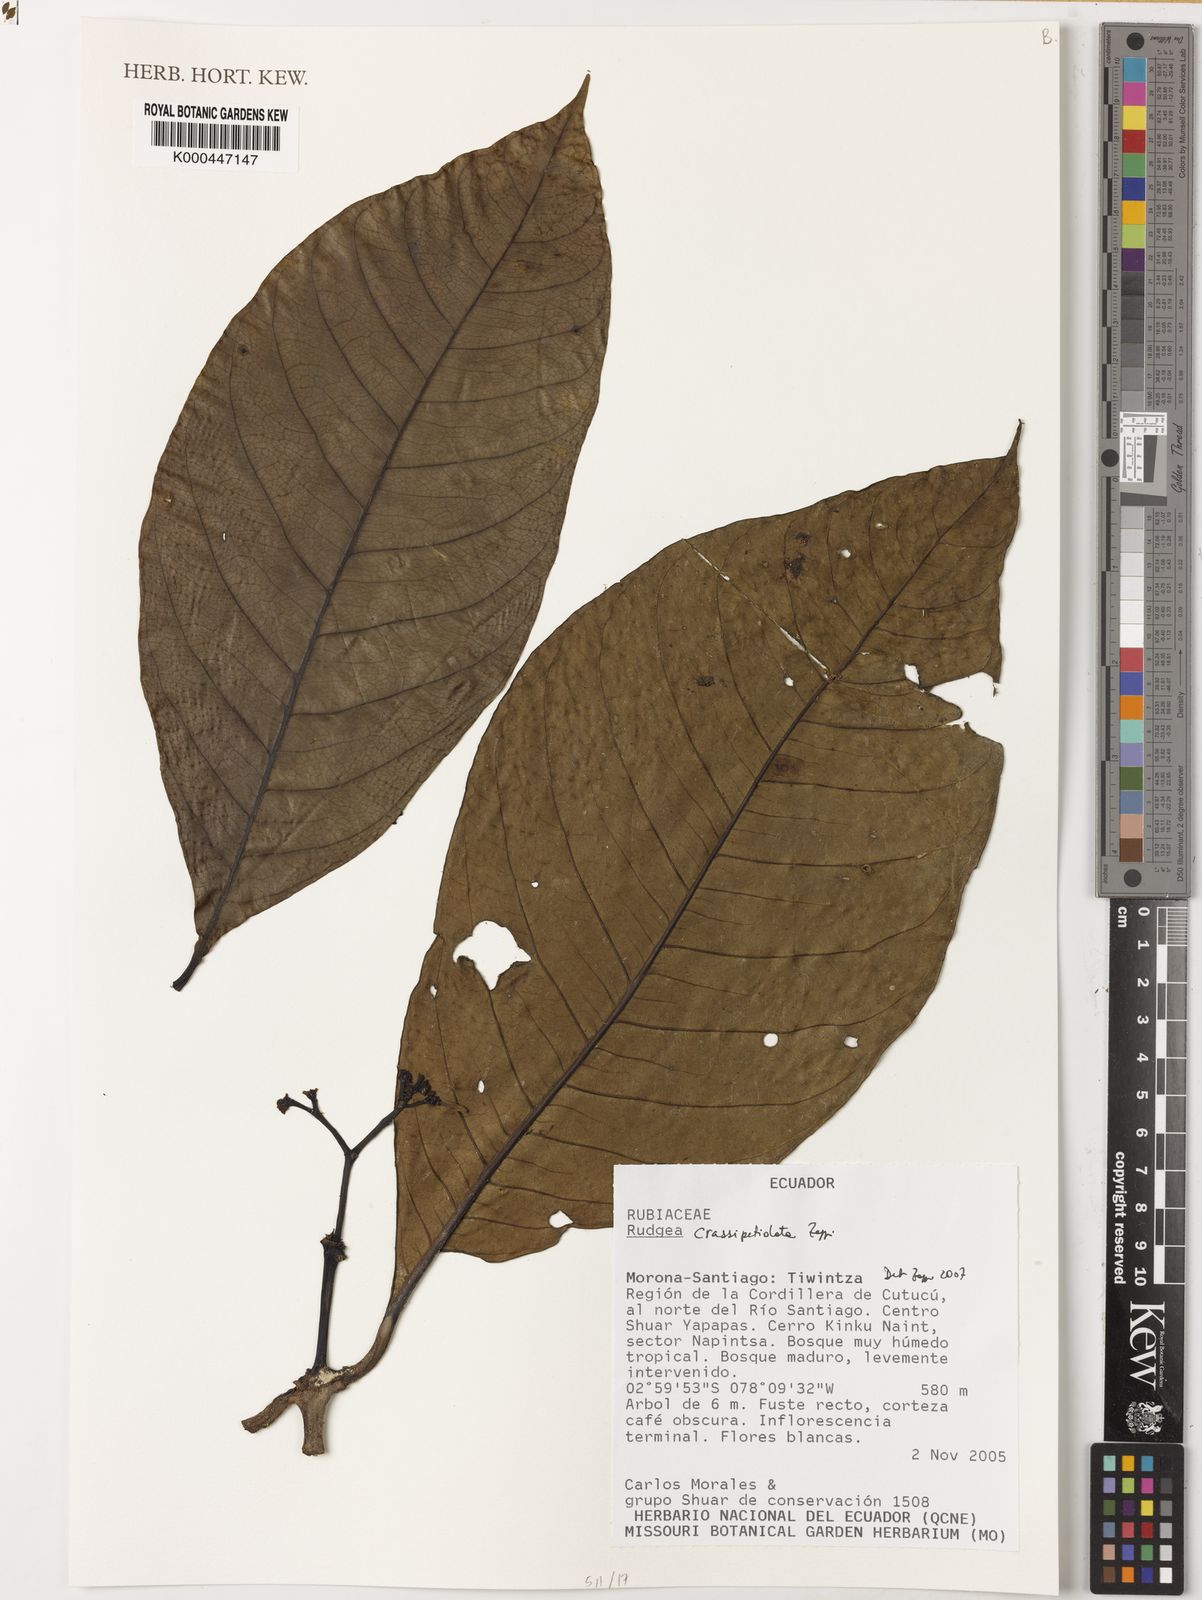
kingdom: Plantae
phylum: Tracheophyta
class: Magnoliopsida
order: Gentianales
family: Rubiaceae
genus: Rudgea
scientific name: Rudgea crassipetiolata
